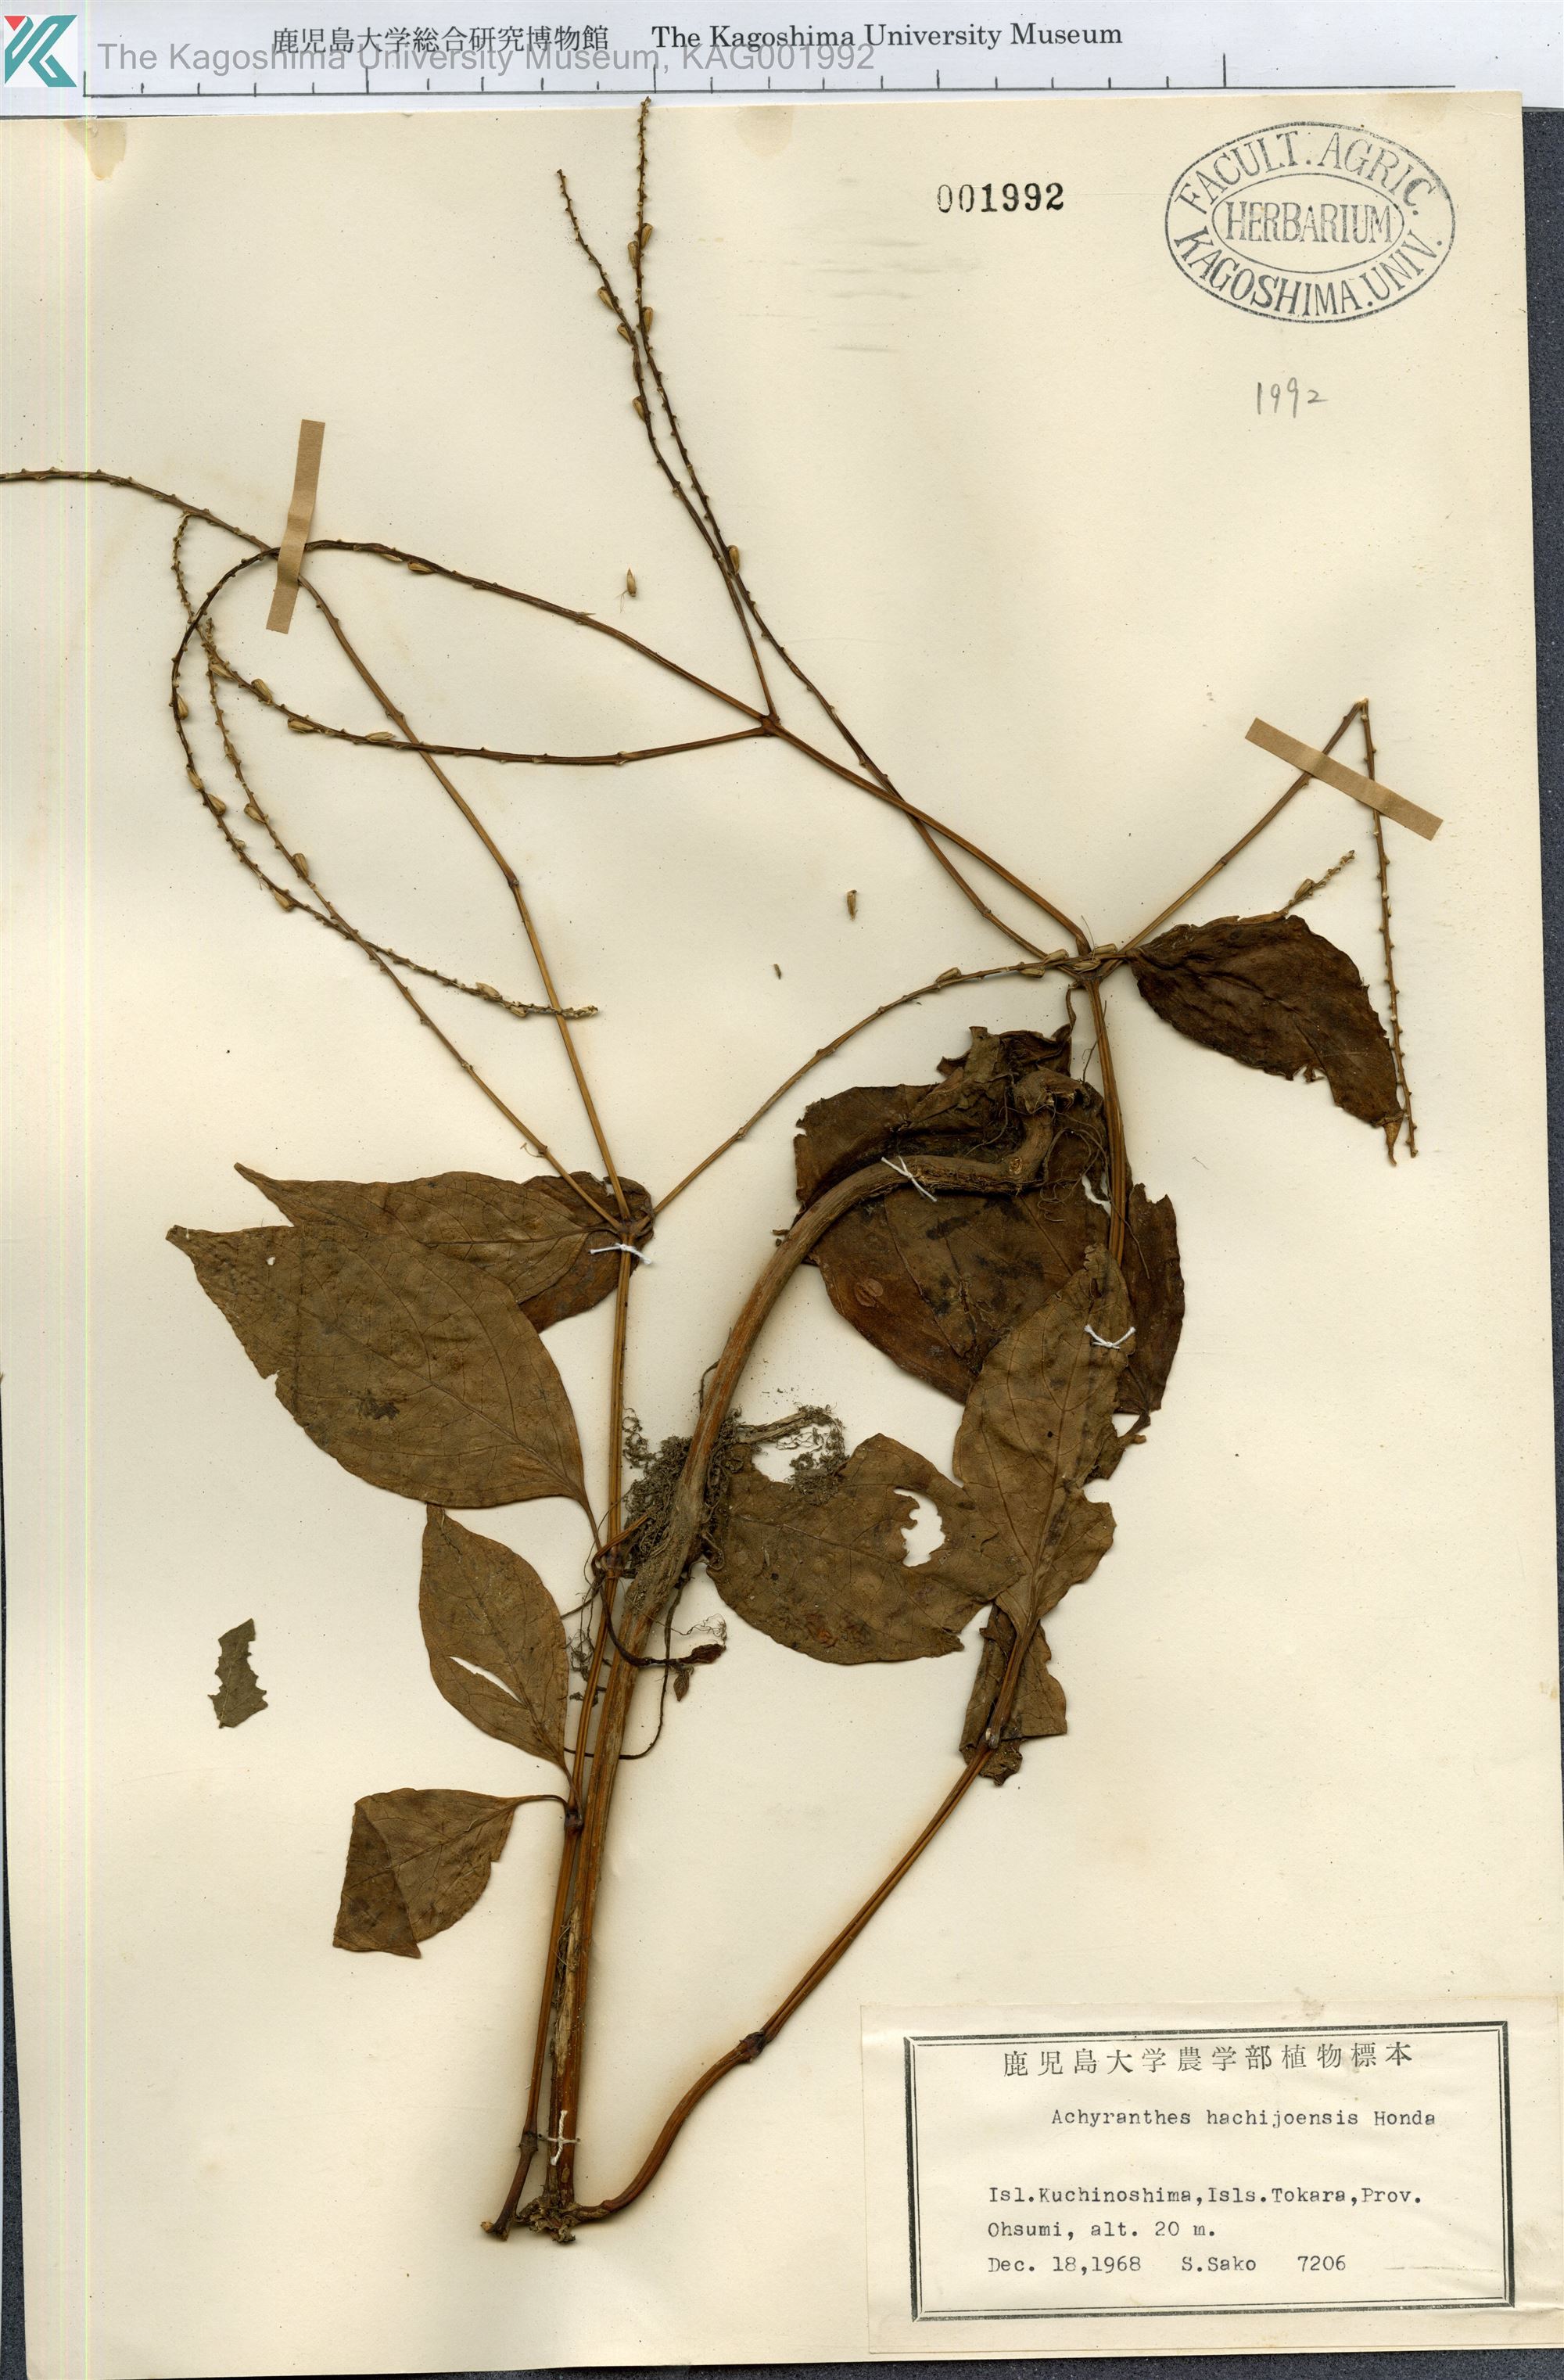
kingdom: Plantae
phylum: Tracheophyta
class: Magnoliopsida
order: Caryophyllales
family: Amaranthaceae
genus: Achyranthes
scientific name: Achyranthes bidentata
